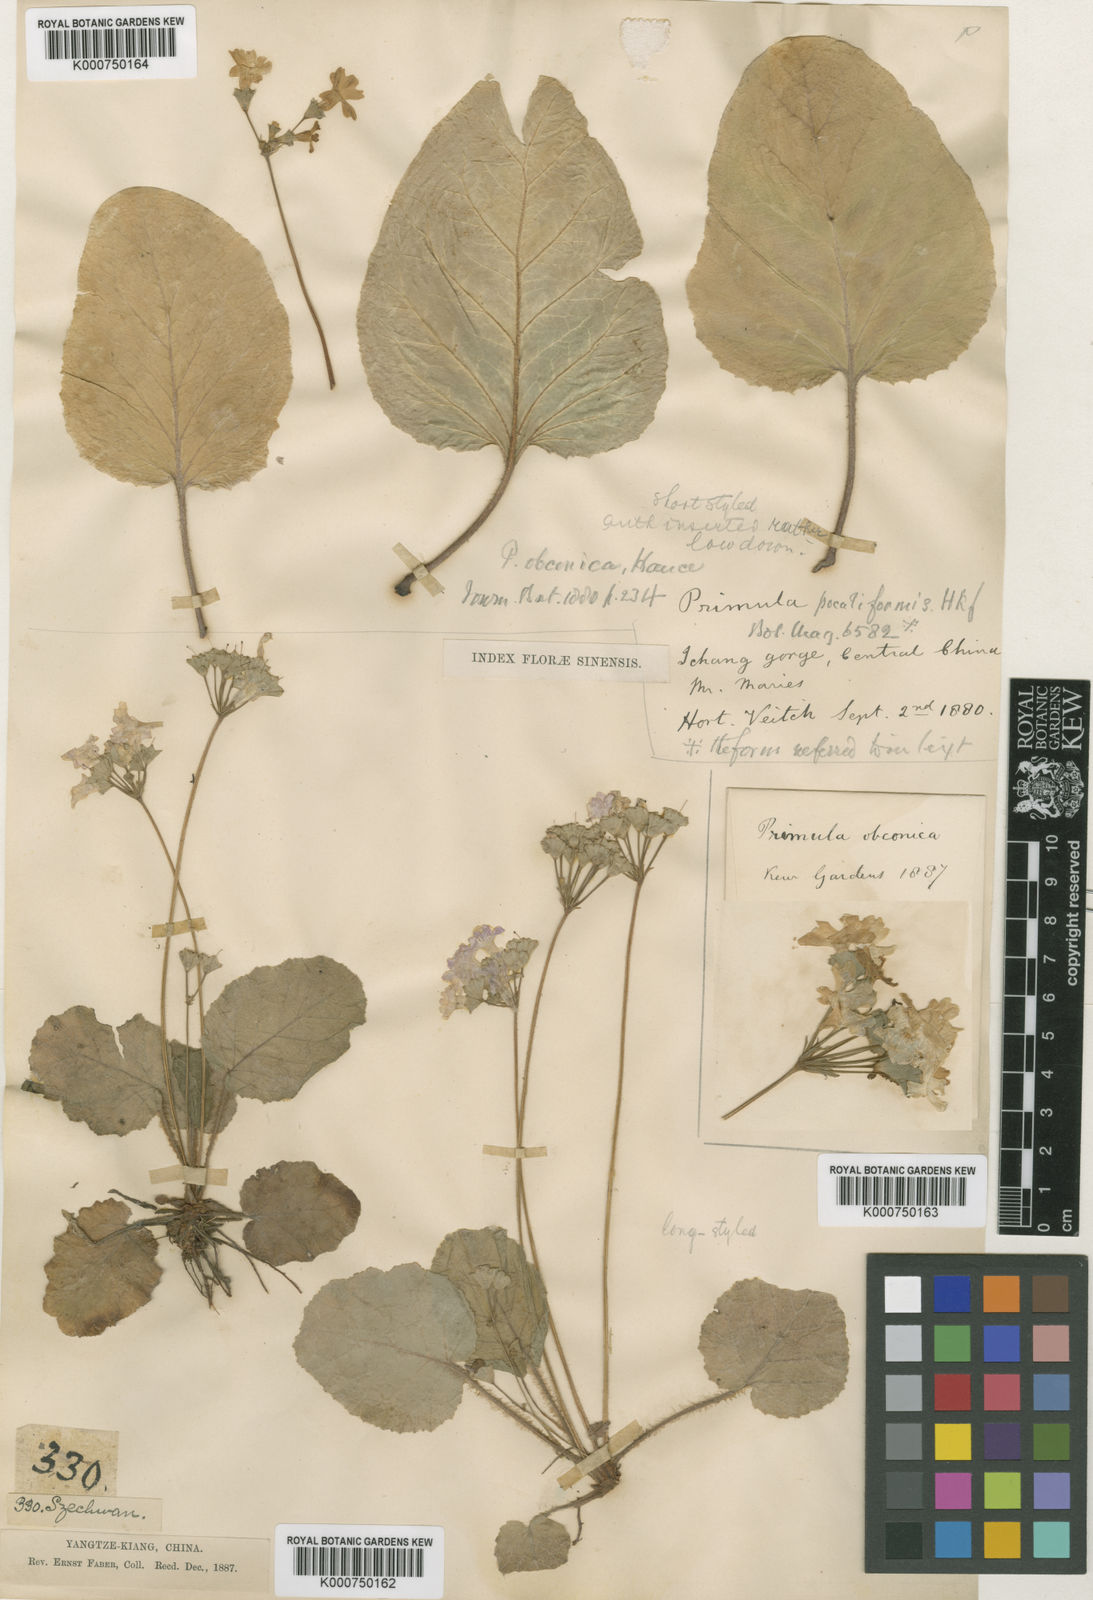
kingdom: Plantae
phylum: Tracheophyta
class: Magnoliopsida
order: Ericales
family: Primulaceae
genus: Primula
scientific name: Primula obconica
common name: German primrose
